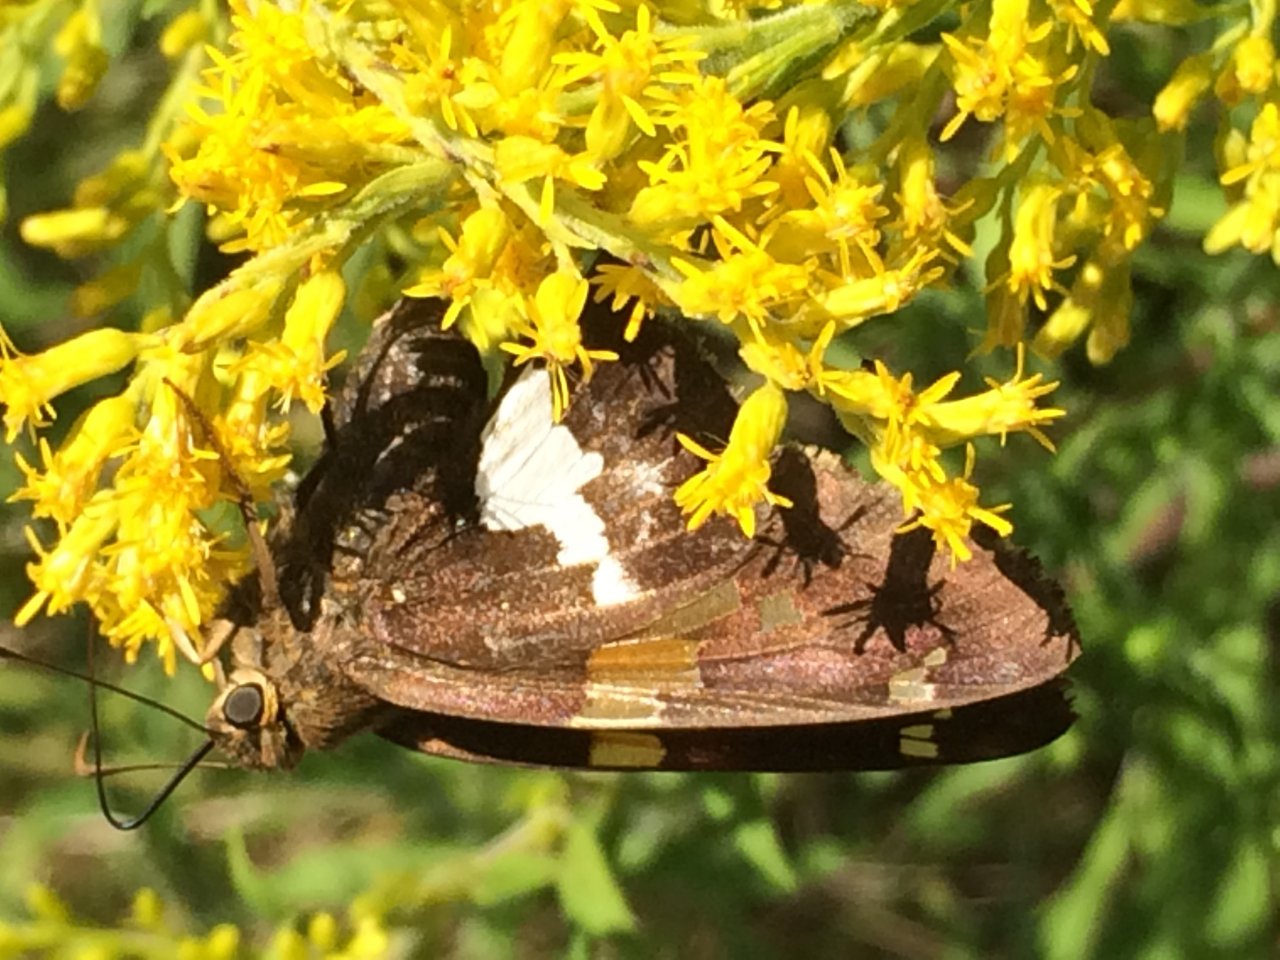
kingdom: Animalia
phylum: Arthropoda
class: Insecta
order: Lepidoptera
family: Hesperiidae
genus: Epargyreus
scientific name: Epargyreus clarus
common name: Silver-spotted Skipper
